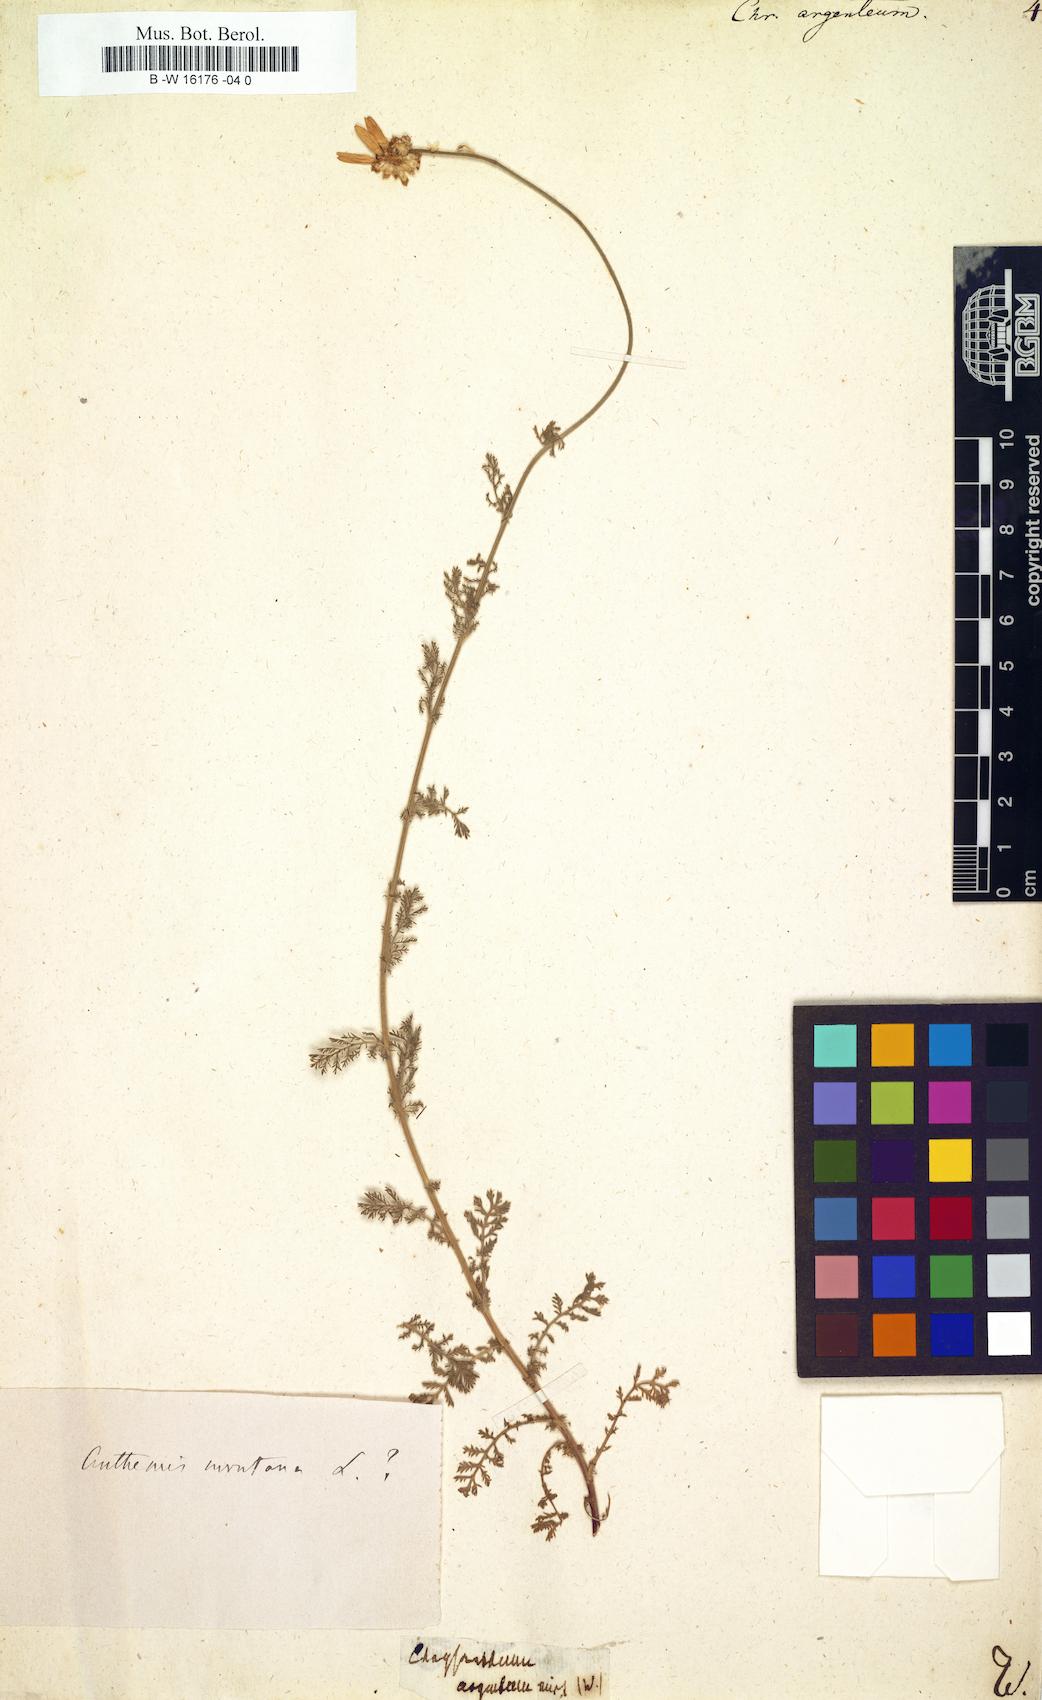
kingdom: Plantae
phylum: Tracheophyta
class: Magnoliopsida
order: Asterales
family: Asteraceae
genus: Tanacetum
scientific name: Tanacetum
